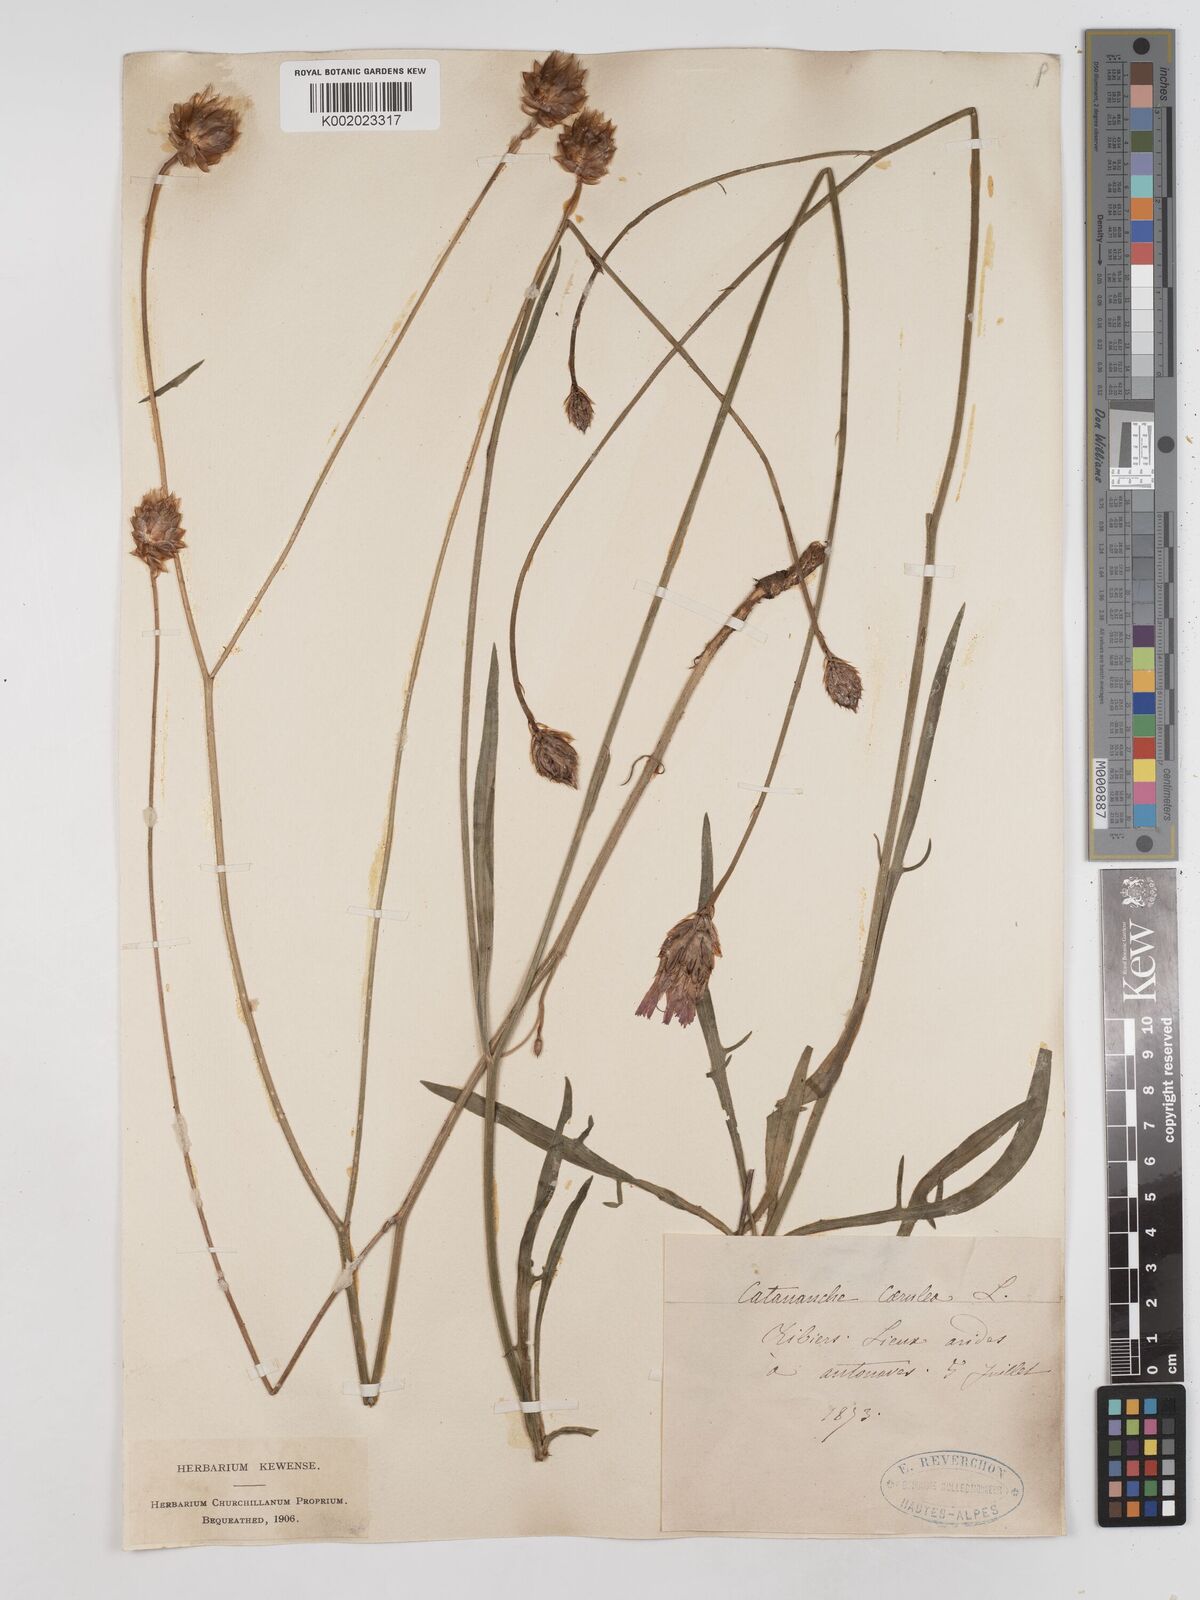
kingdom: Plantae
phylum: Tracheophyta
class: Magnoliopsida
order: Asterales
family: Asteraceae
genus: Catananche
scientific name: Catananche caerulea
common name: Blue cupidone
